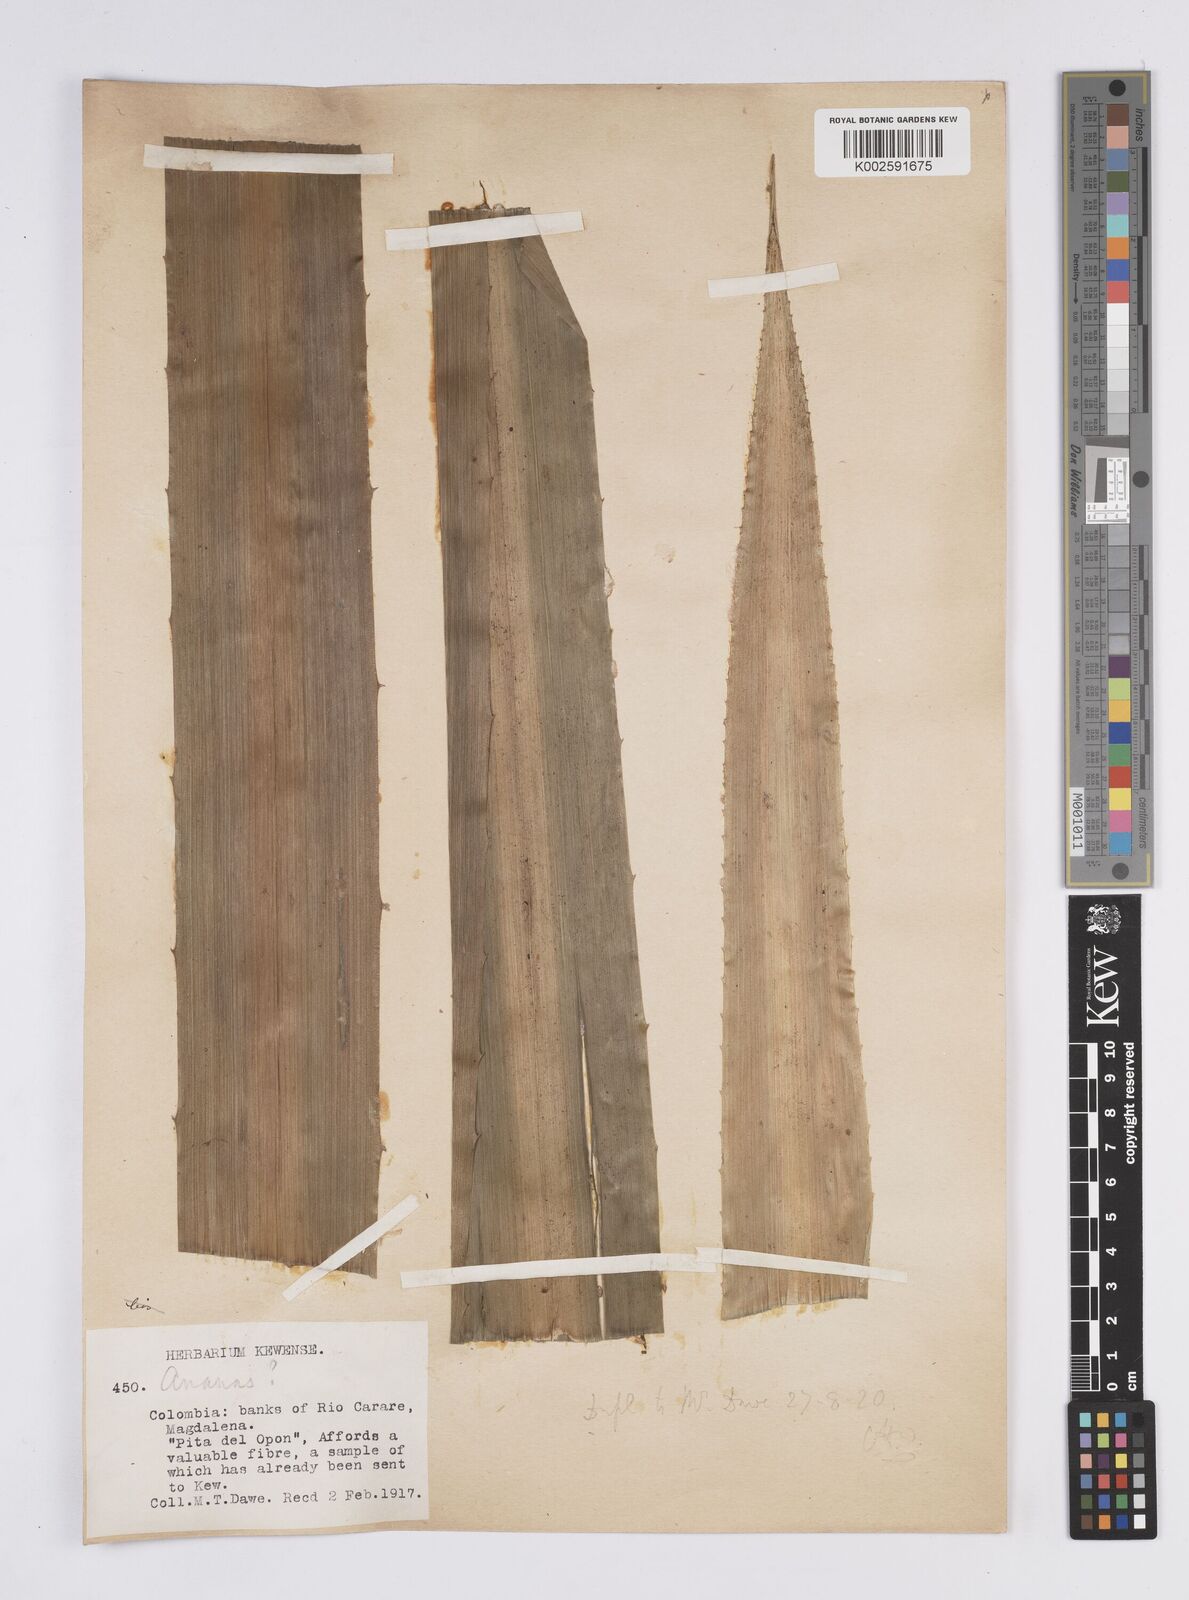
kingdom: Plantae
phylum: Tracheophyta
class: Liliopsida
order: Poales
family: Bromeliaceae
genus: Aechmea
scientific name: Aechmea magdalenae
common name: Arghan
